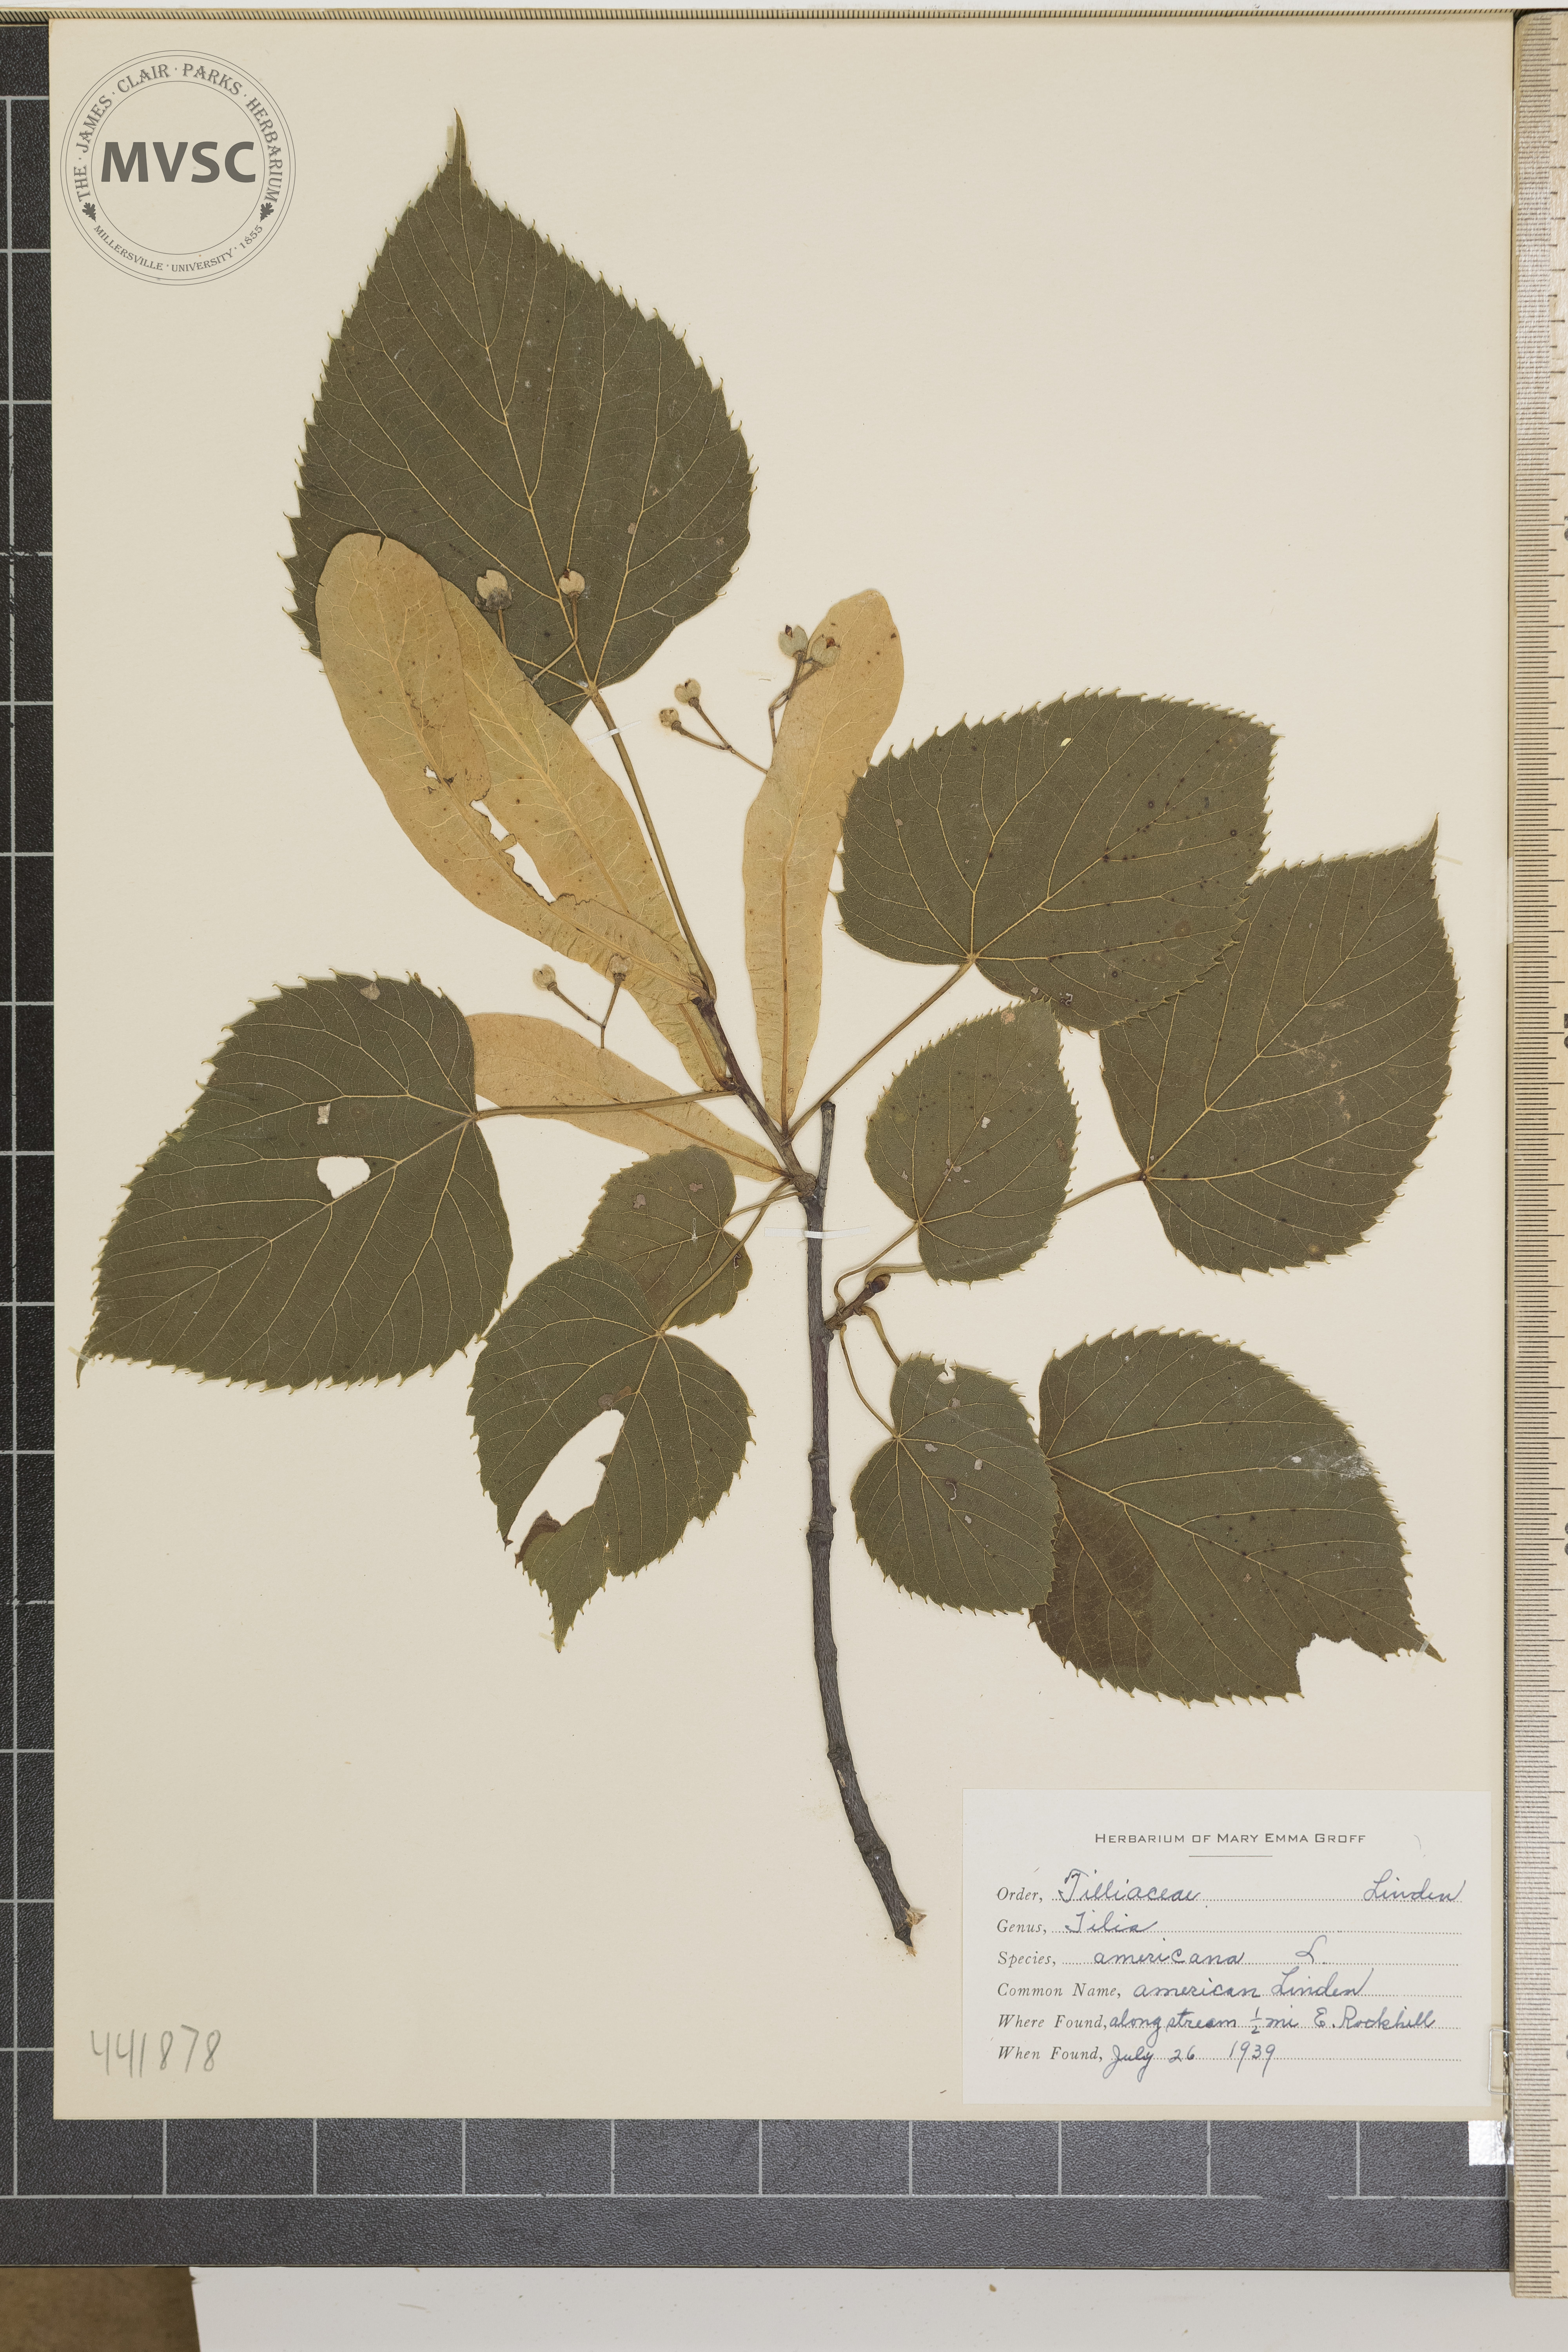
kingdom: Plantae
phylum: Tracheophyta
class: Magnoliopsida
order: Malvales
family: Malvaceae
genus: Tilia
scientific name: Tilia americana
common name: American Linden
